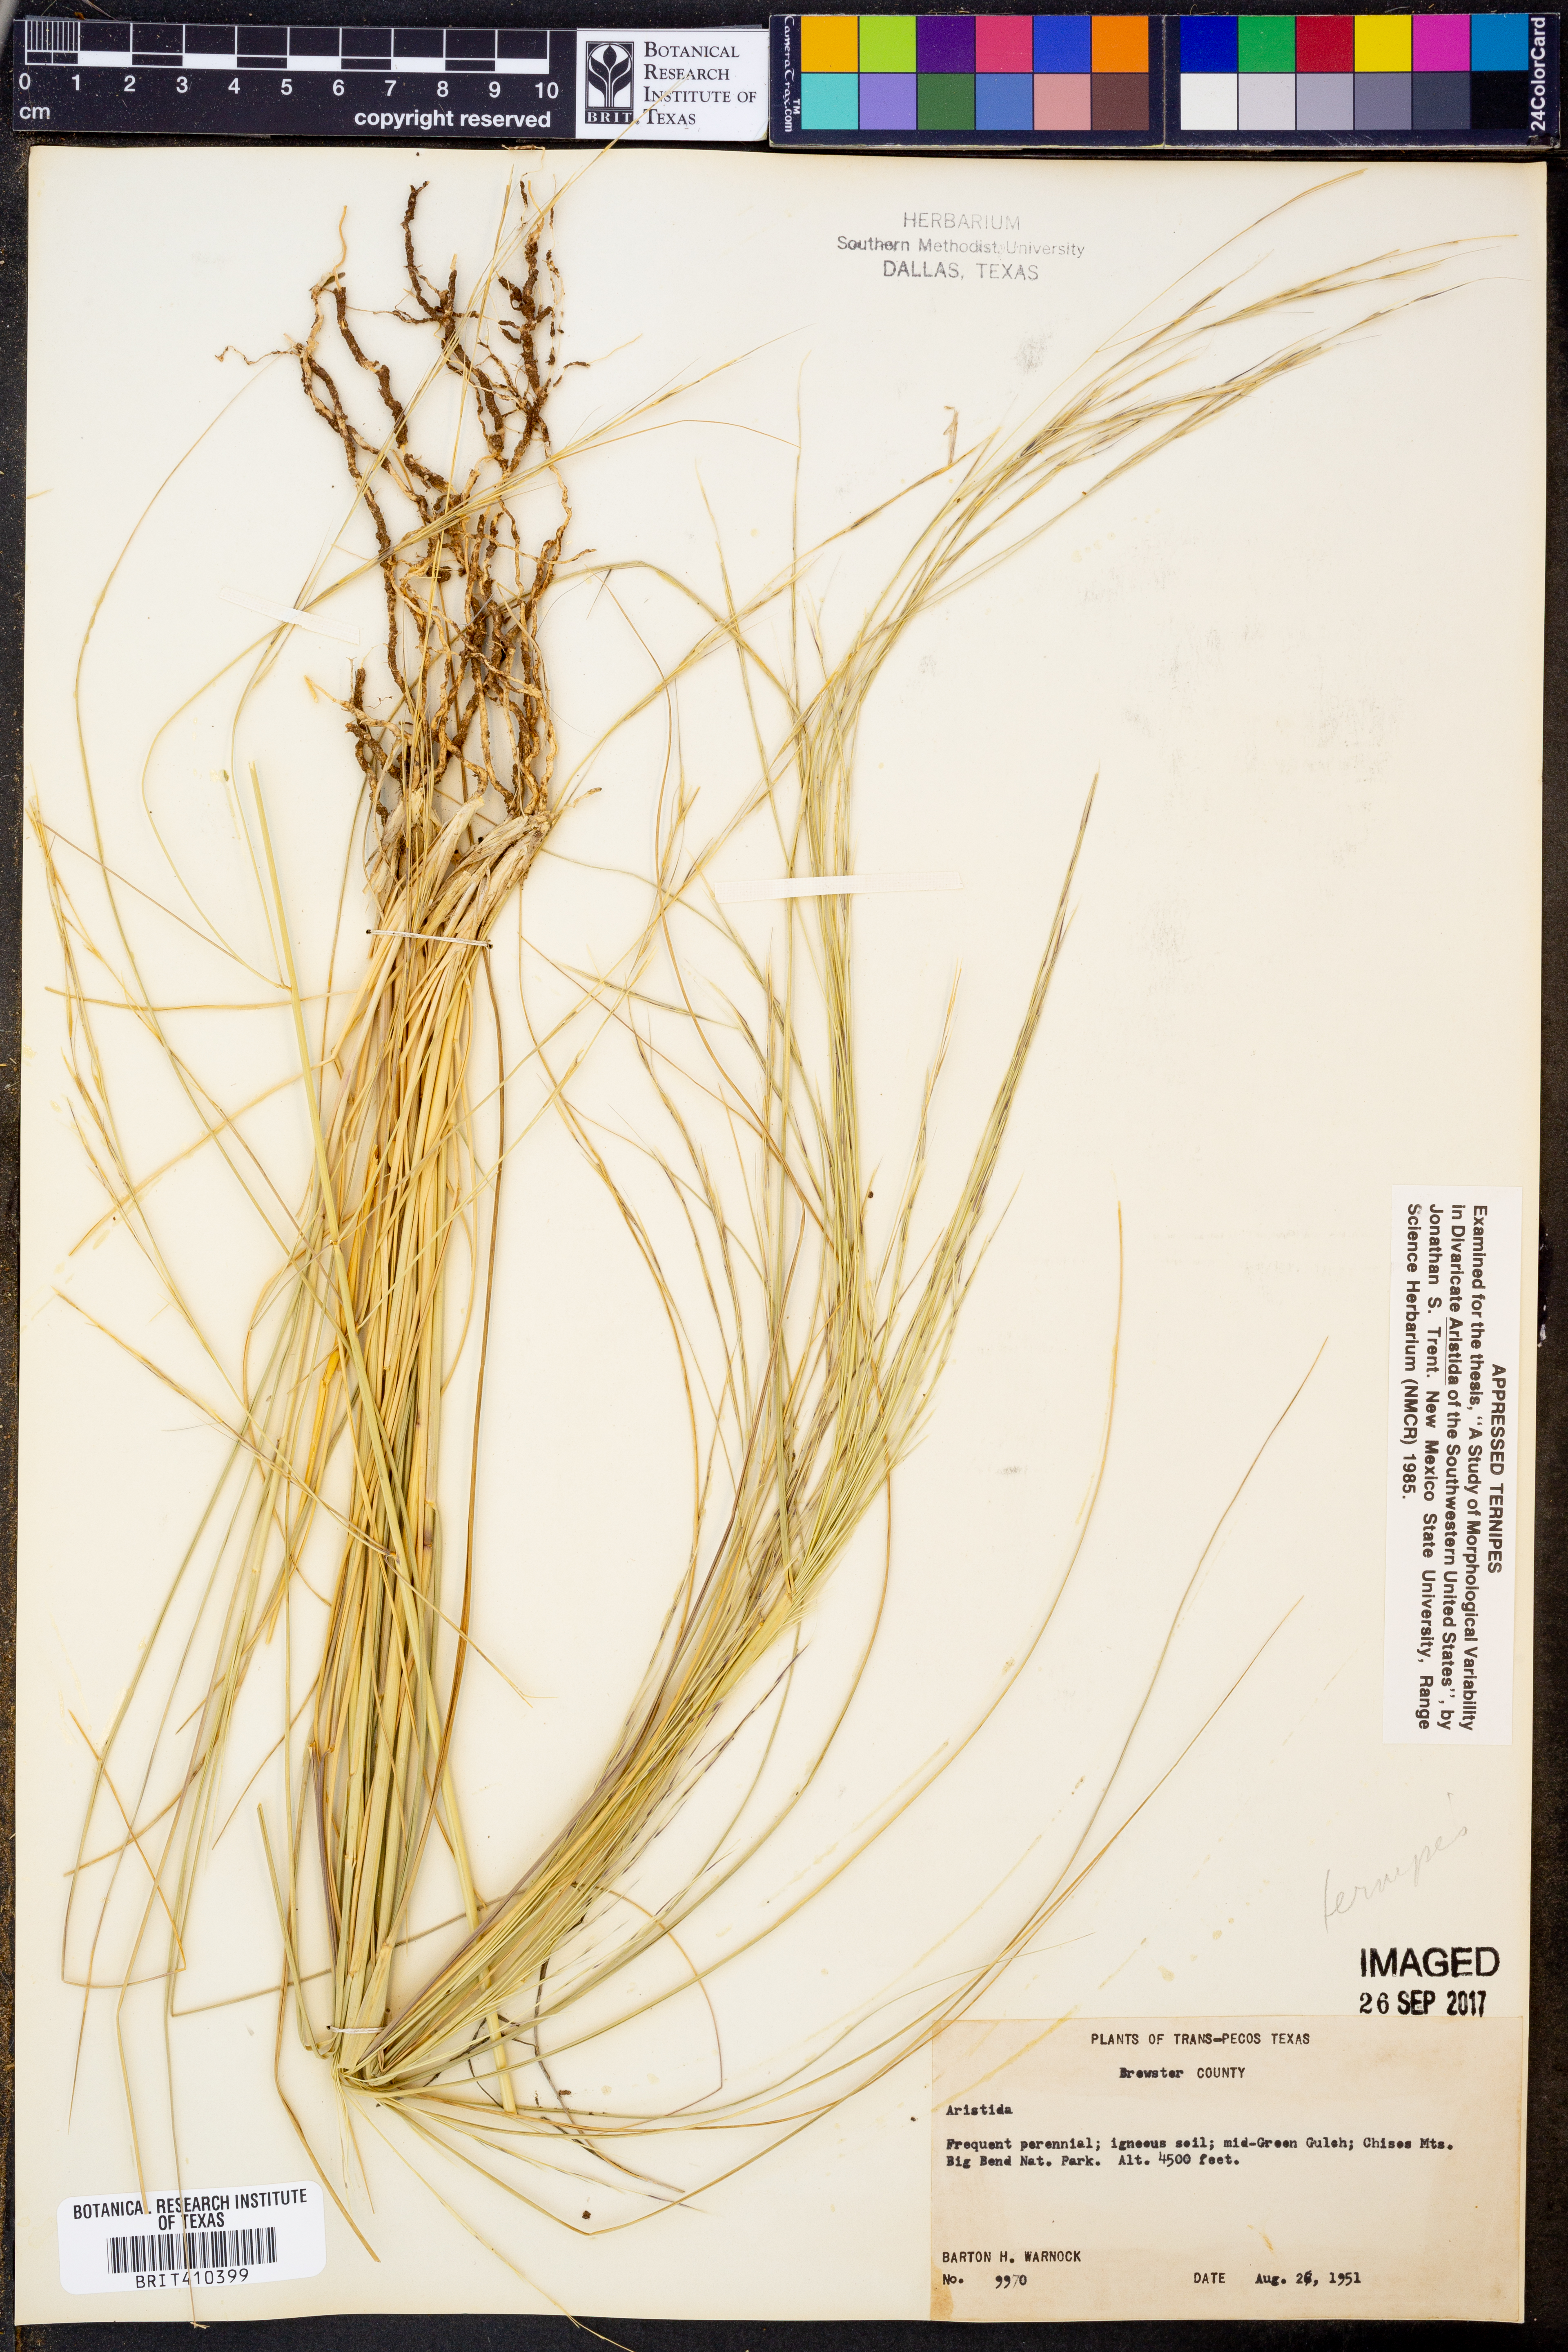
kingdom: Plantae
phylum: Tracheophyta
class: Liliopsida
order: Poales
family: Poaceae
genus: Aristida
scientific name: Aristida ternipes
